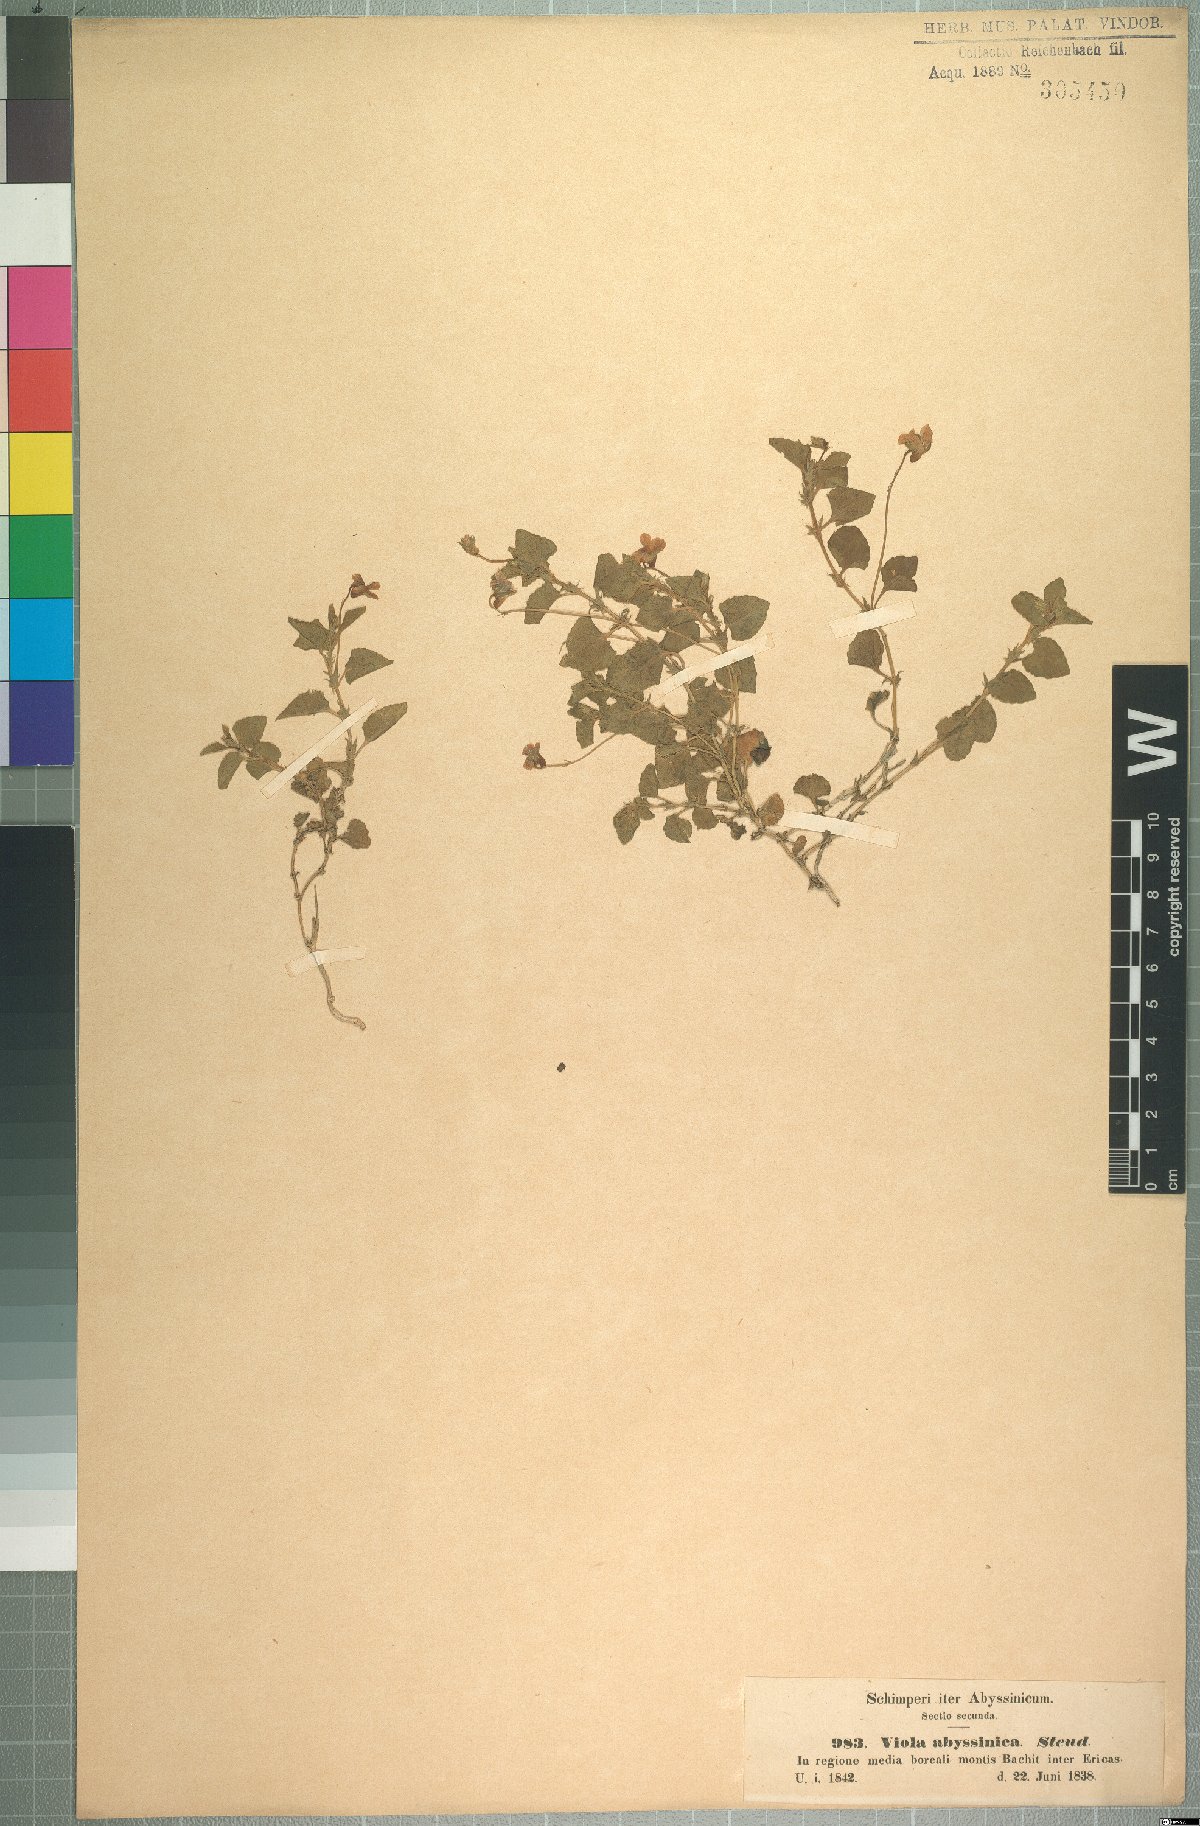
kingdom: Plantae
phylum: Tracheophyta
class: Magnoliopsida
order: Malpighiales
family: Violaceae
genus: Viola
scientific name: Viola abyssinica
